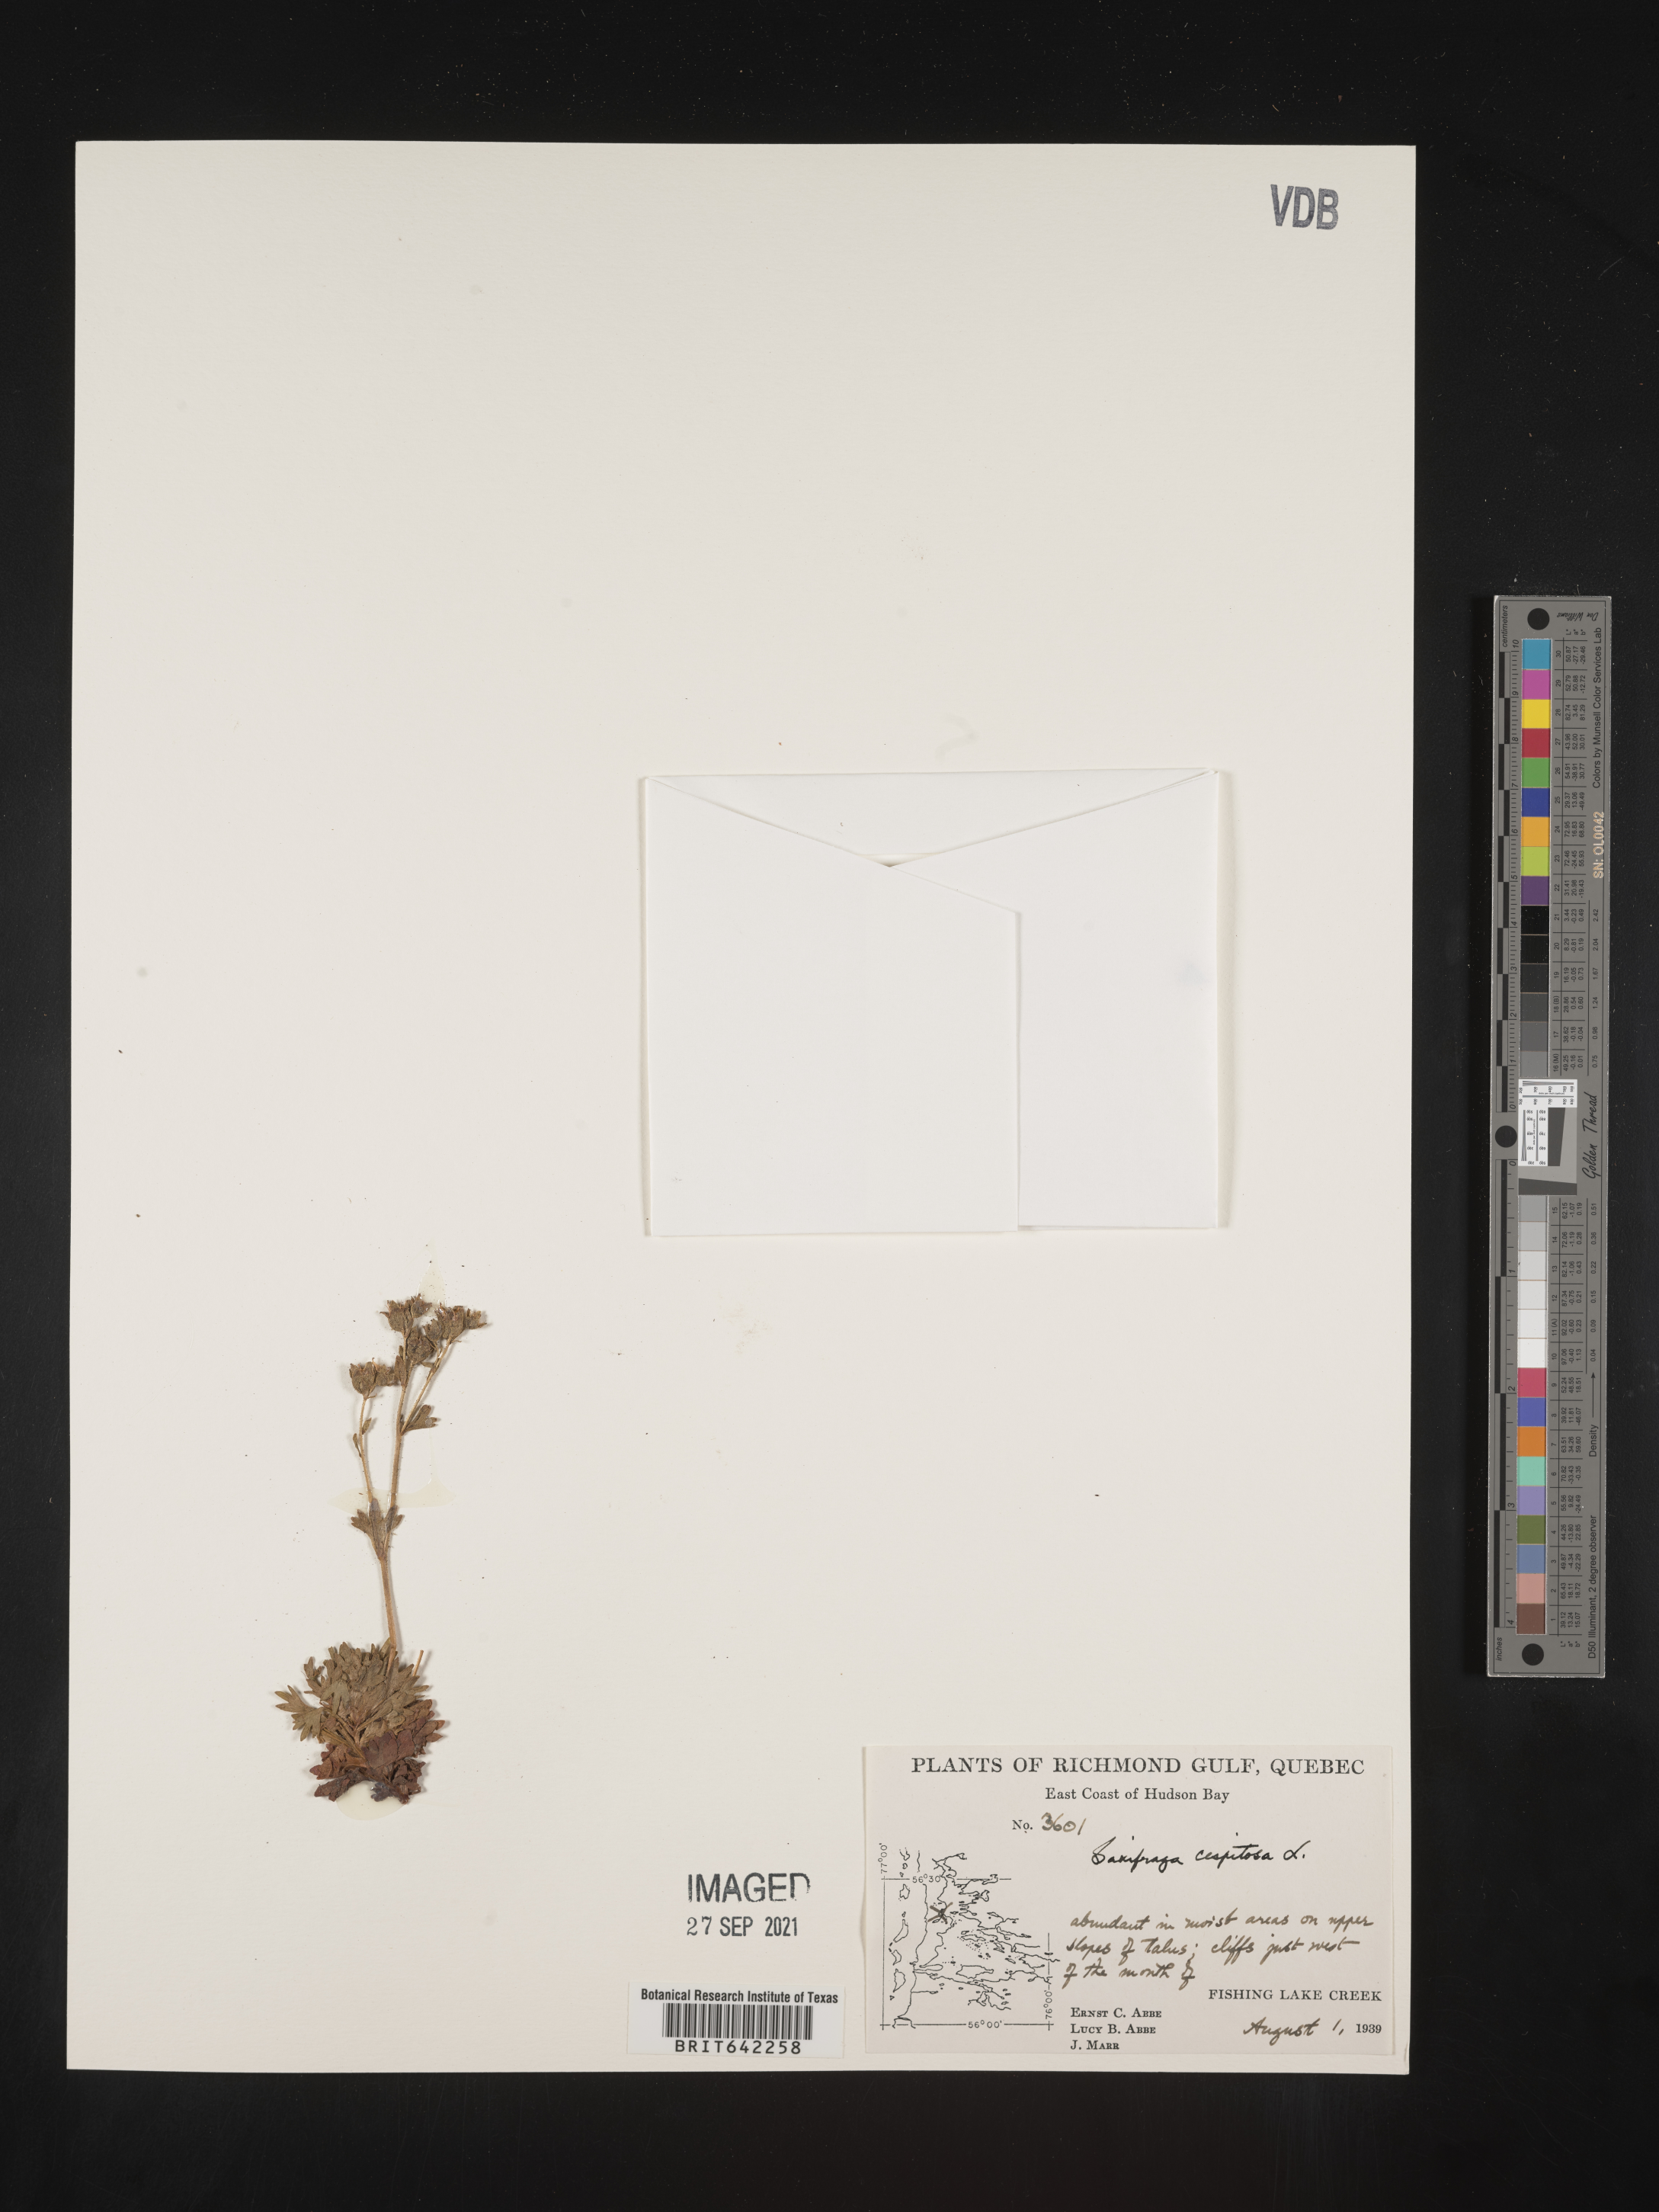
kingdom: Plantae
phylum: Tracheophyta
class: Magnoliopsida
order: Saxifragales
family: Saxifragaceae
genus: Saxifraga
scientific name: Saxifraga
